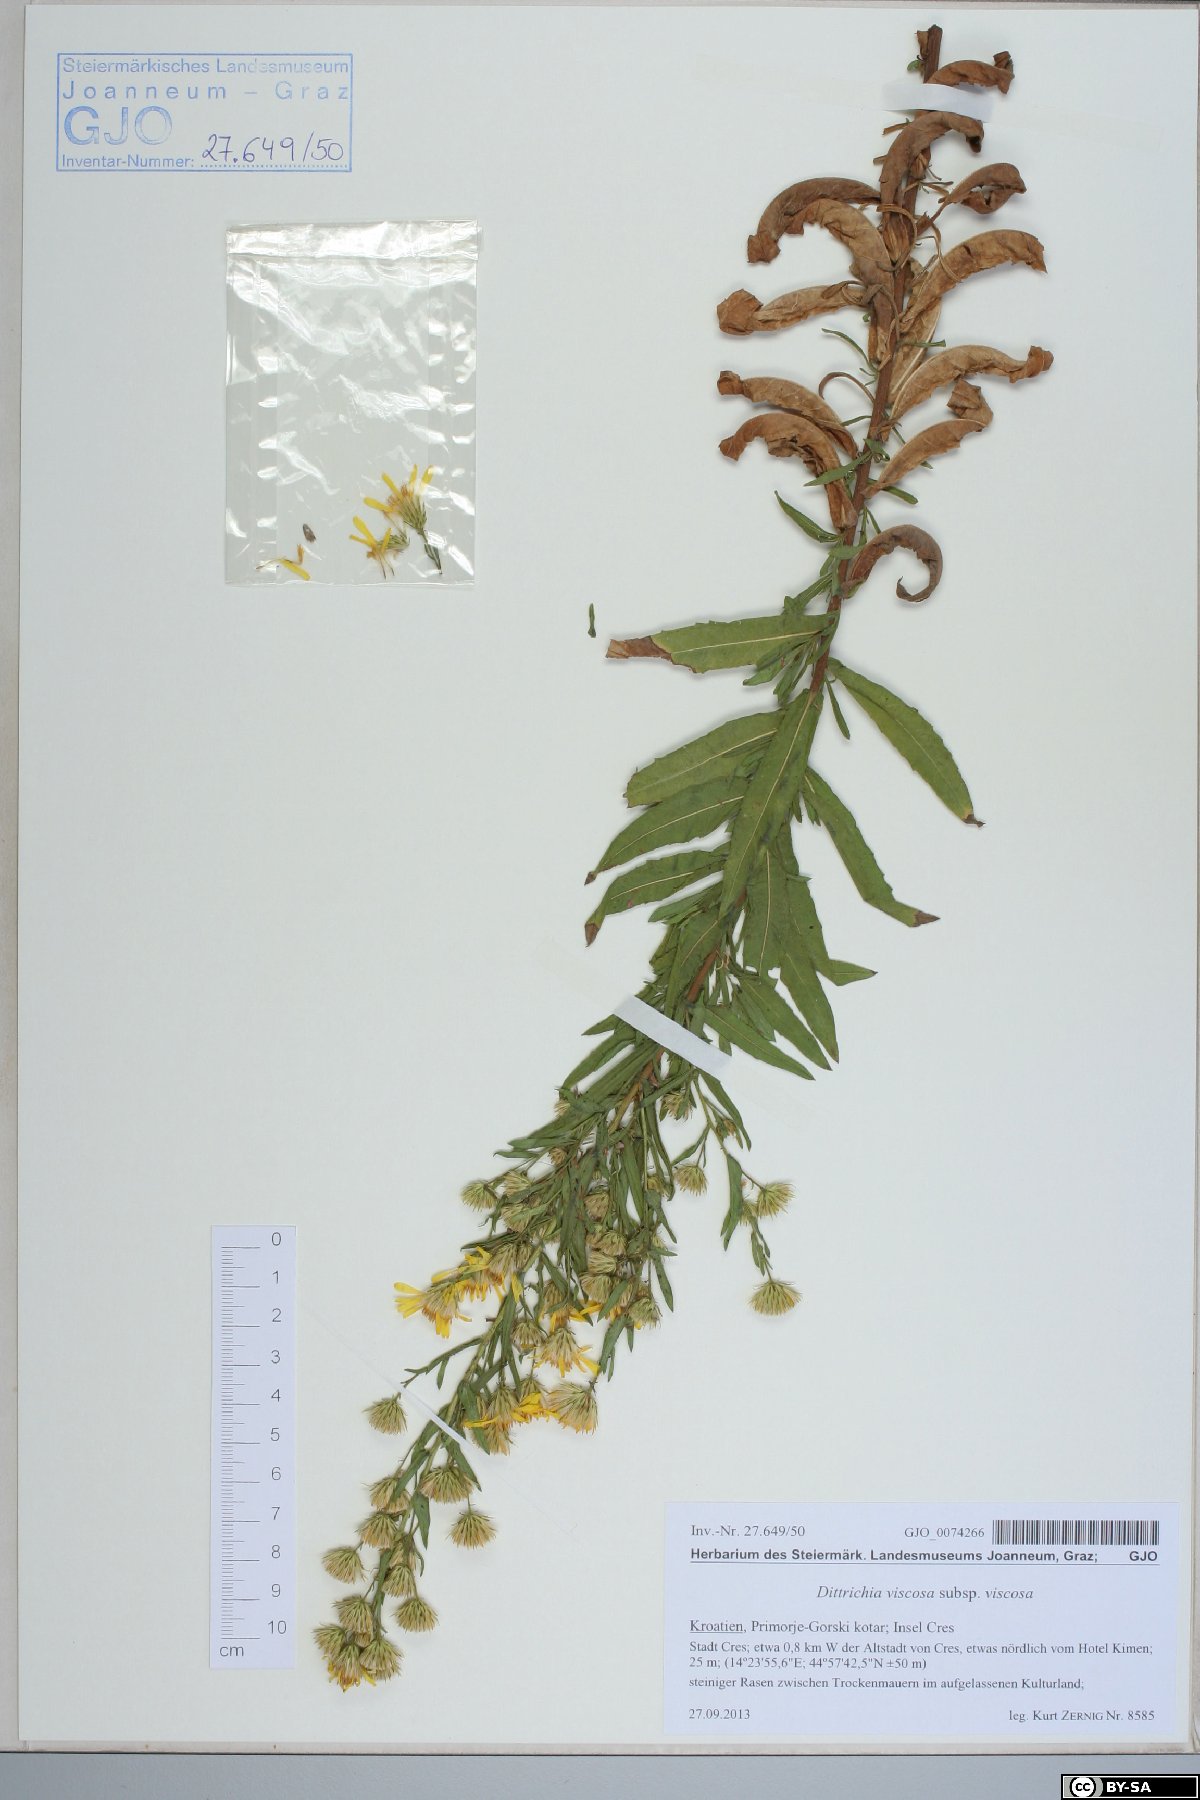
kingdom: Plantae
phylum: Tracheophyta
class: Magnoliopsida
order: Asterales
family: Asteraceae
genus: Dittrichia
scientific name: Dittrichia viscosa
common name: Woody fleabane
